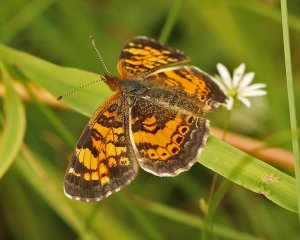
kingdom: Animalia
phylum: Arthropoda
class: Insecta
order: Lepidoptera
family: Nymphalidae
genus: Phyciodes
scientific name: Phyciodes tharos
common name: Northern Crescent
